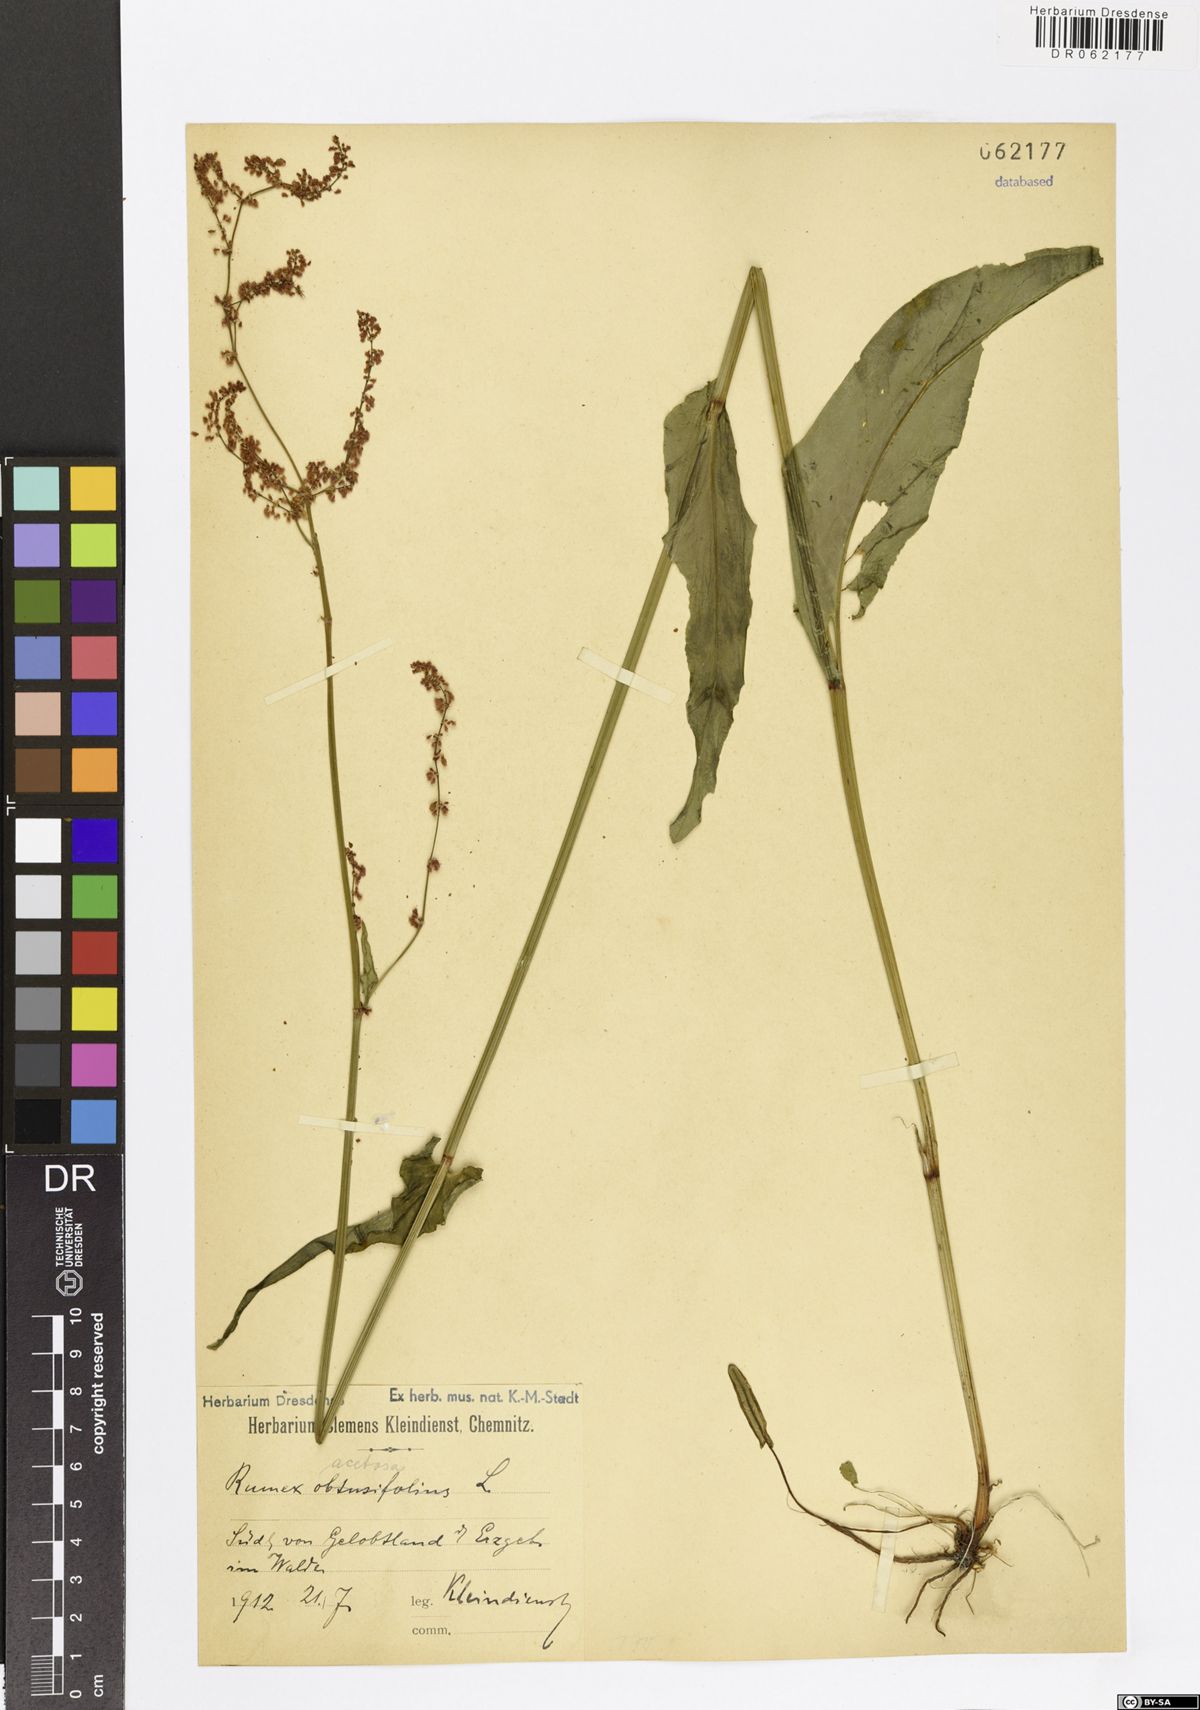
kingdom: Plantae
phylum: Tracheophyta
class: Magnoliopsida
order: Caryophyllales
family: Polygonaceae
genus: Rumex
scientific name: Rumex acetosa
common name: Garden sorrel
